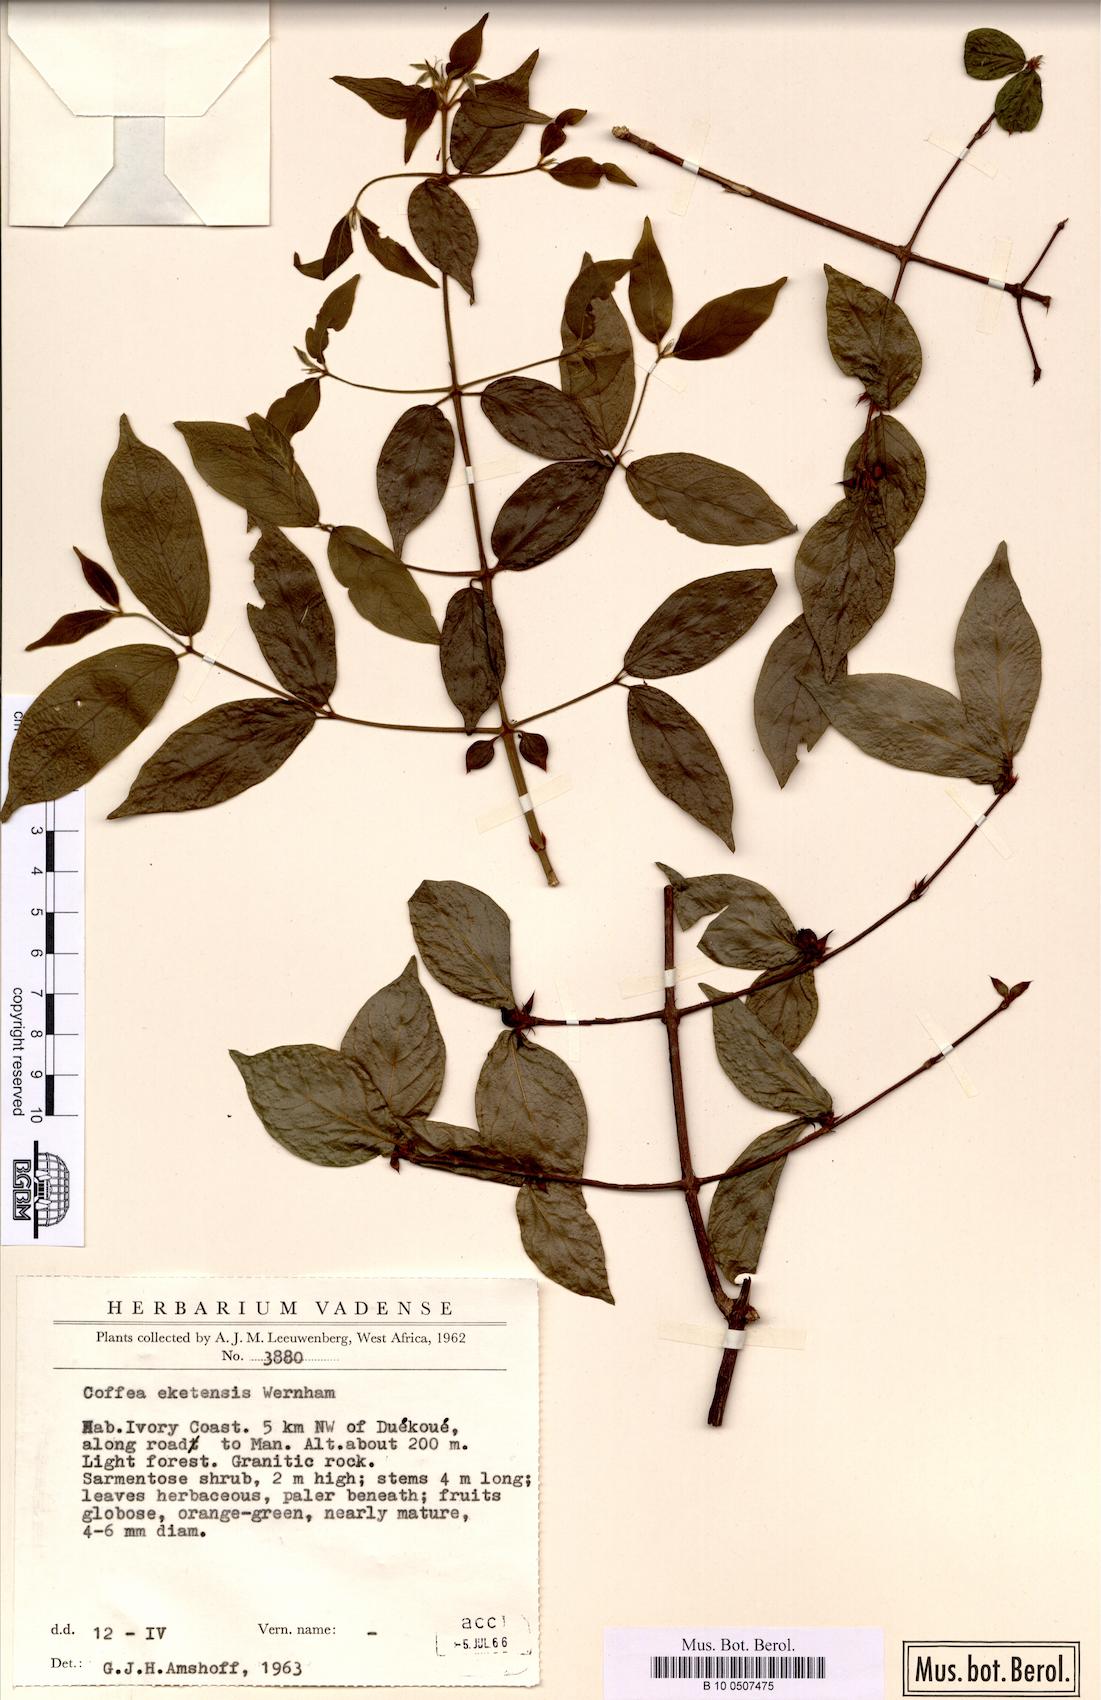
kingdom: Plantae
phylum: Tracheophyta
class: Magnoliopsida
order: Gentianales
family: Rubiaceae
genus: Argocoffeopsis
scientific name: Argocoffeopsis eketensis
